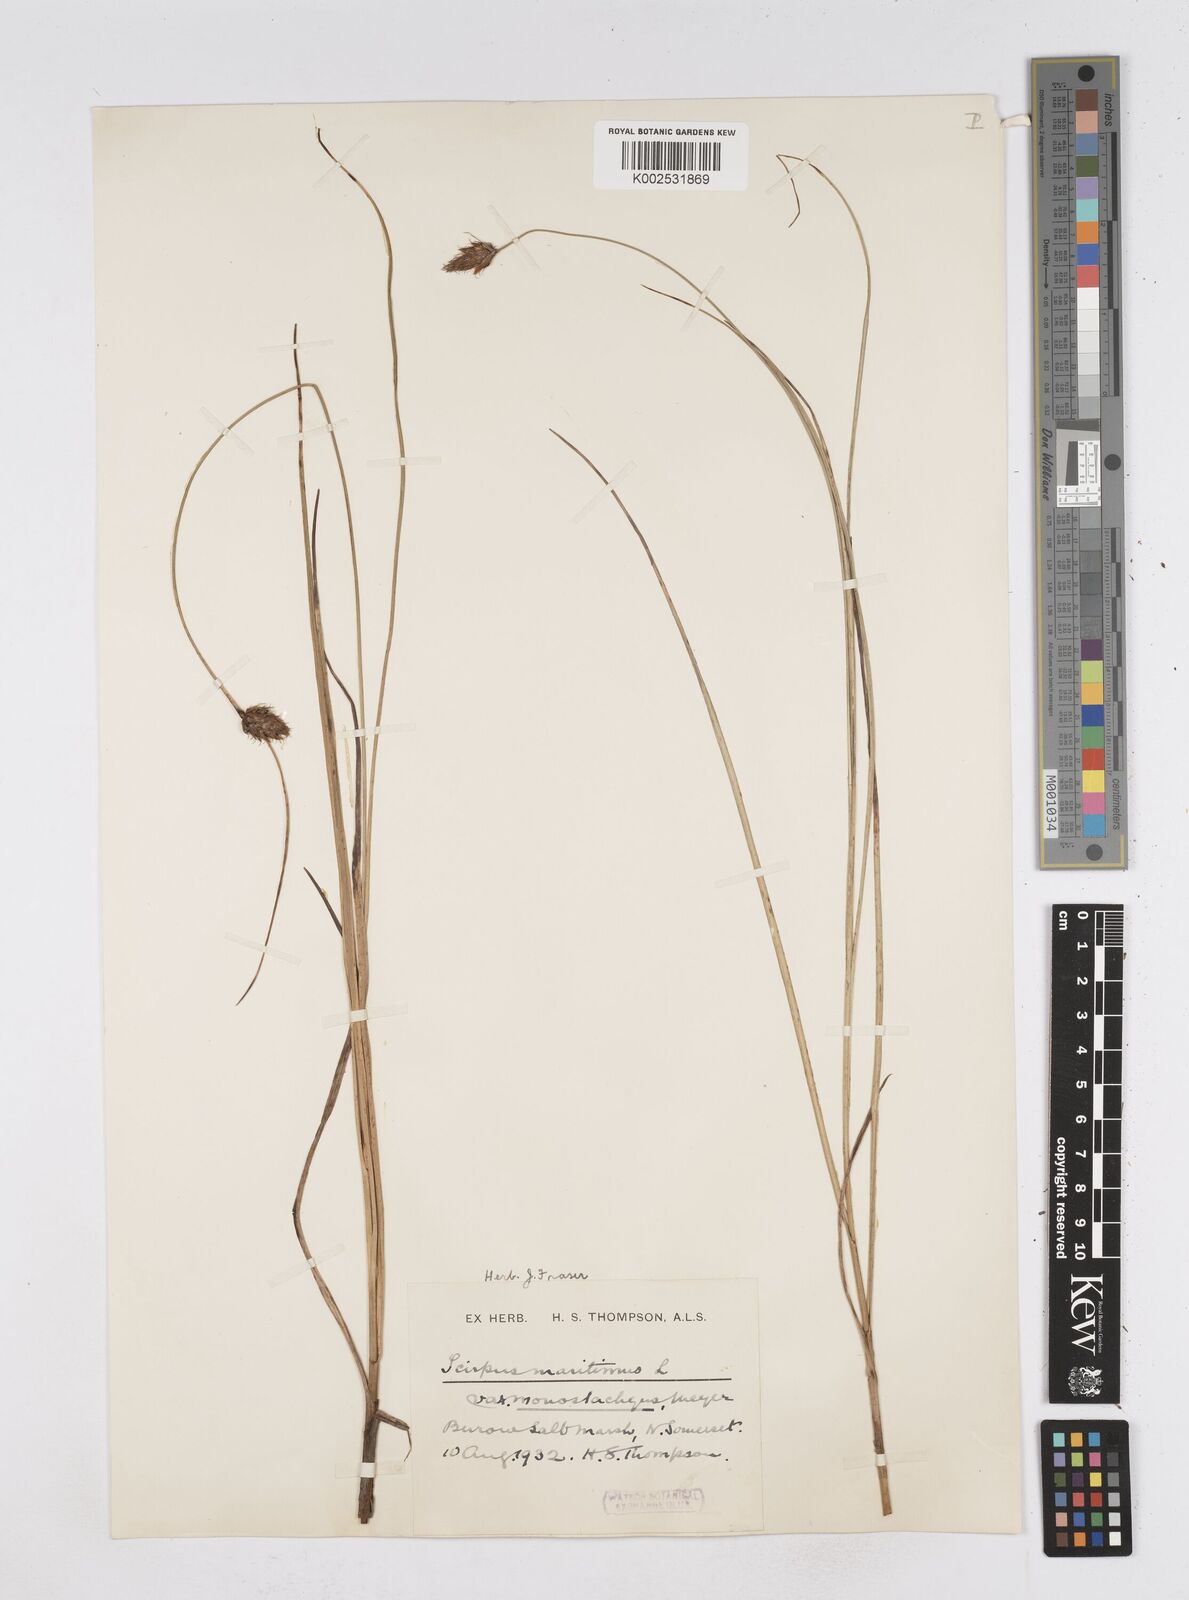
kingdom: Plantae
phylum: Tracheophyta
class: Liliopsida
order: Poales
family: Cyperaceae
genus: Bolboschoenus
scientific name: Bolboschoenus maritimus
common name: Sea club-rush
